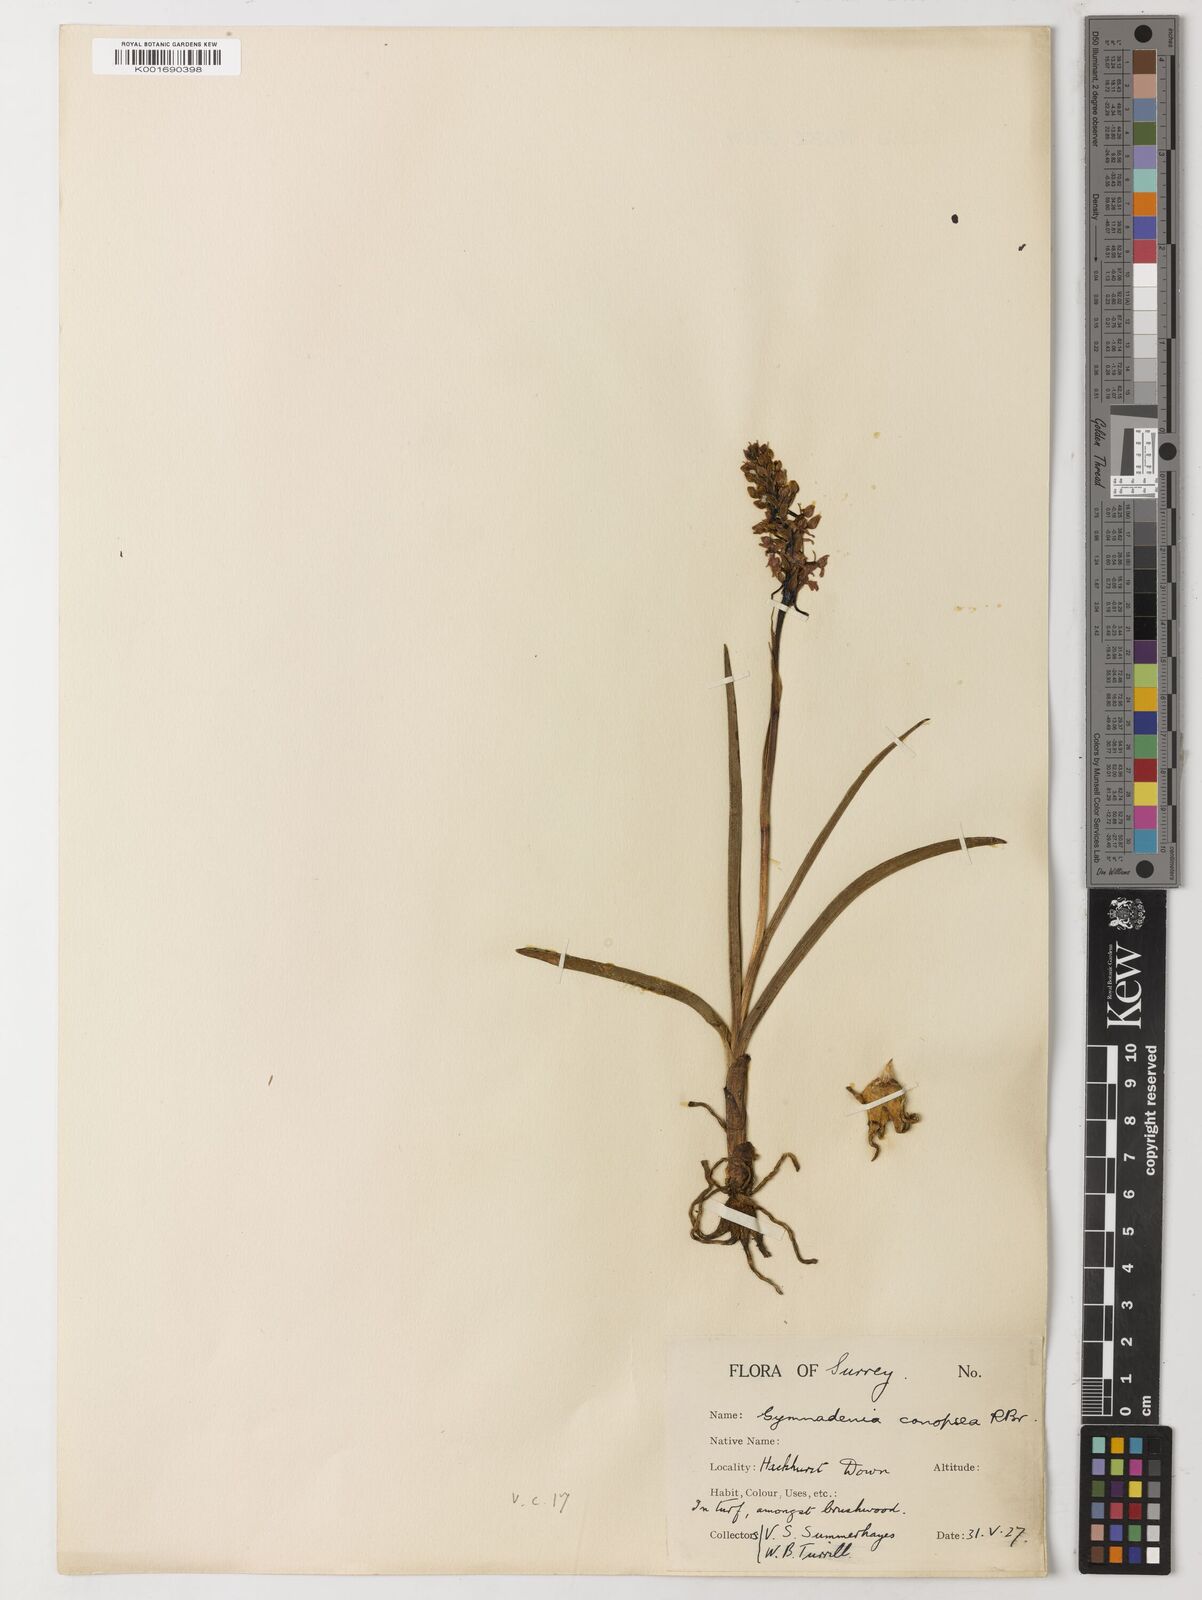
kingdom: Plantae
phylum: Tracheophyta
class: Magnoliopsida
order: Myrtales
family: Combretaceae
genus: Terminalia
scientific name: Terminalia
